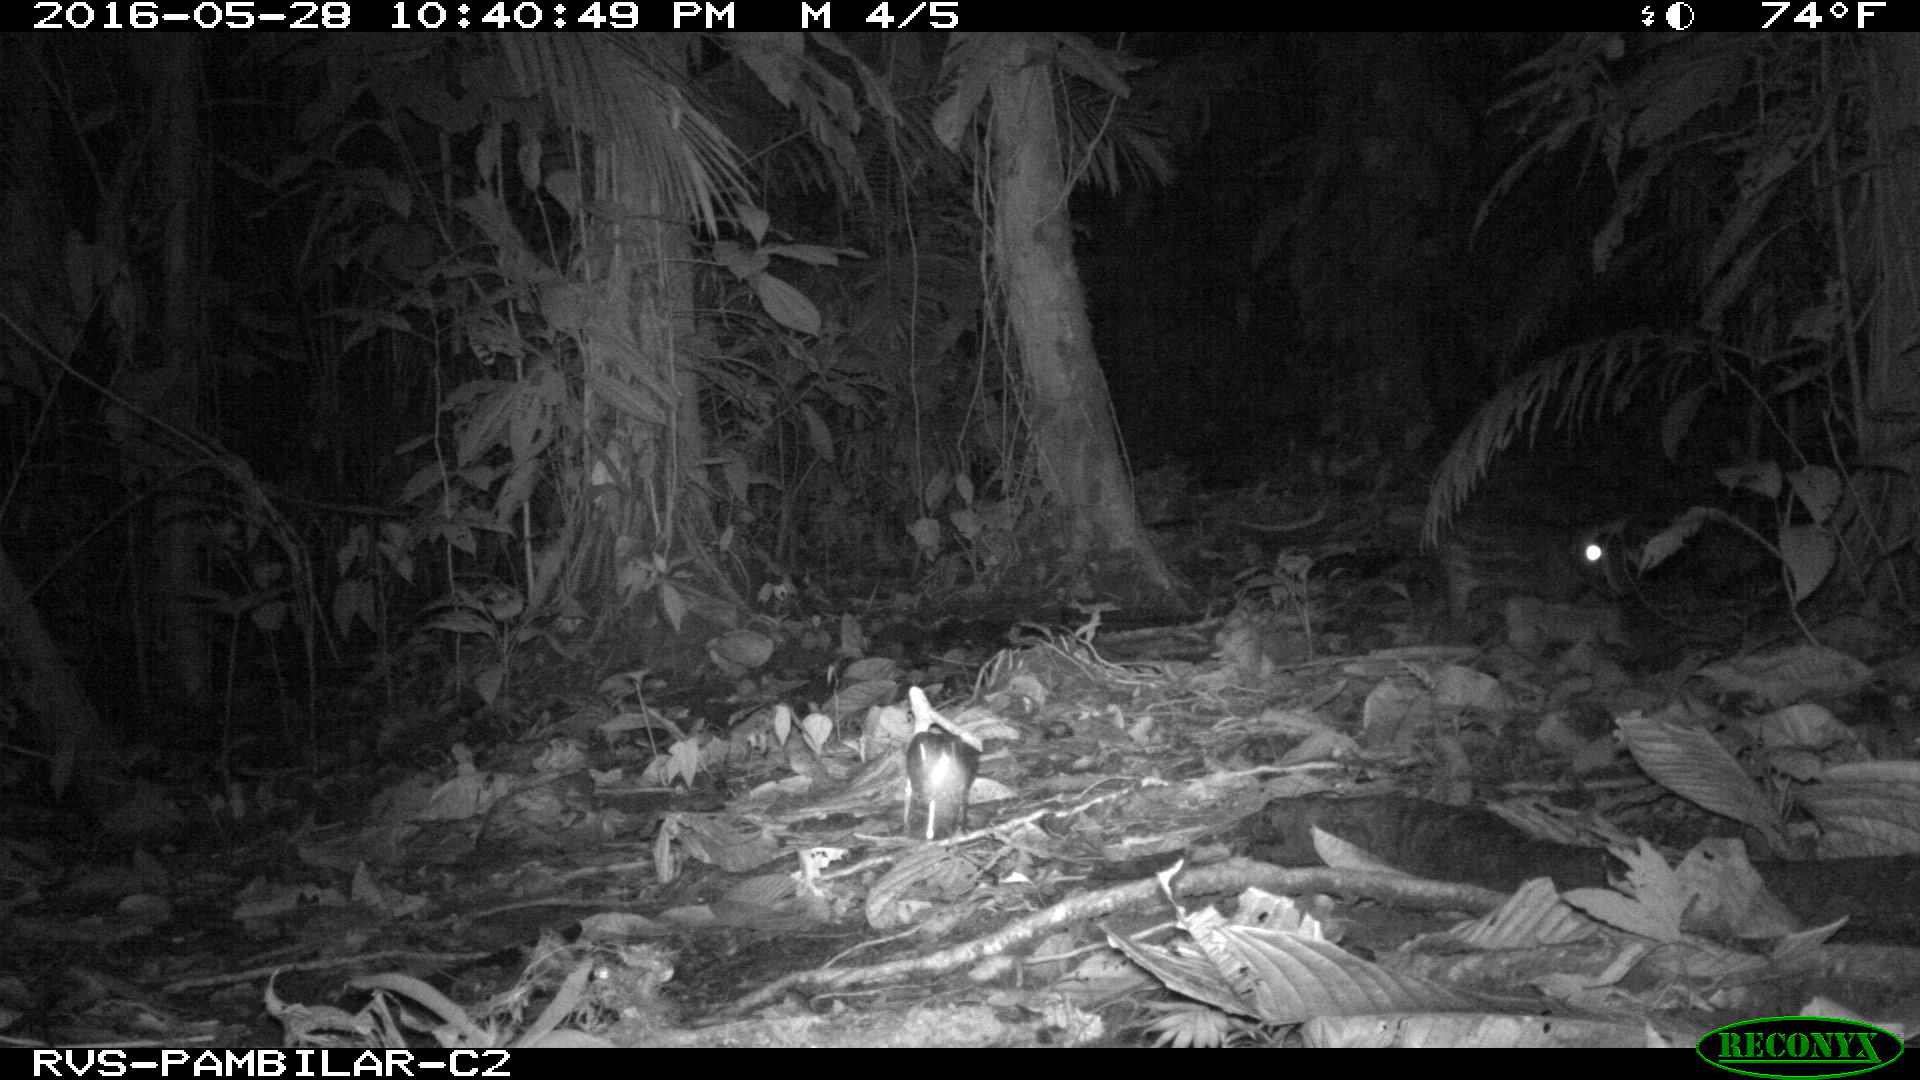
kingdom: Animalia
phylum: Chordata
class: Mammalia
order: Rodentia
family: Cuniculidae
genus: Cuniculus
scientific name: Cuniculus paca
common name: Lowland paca
